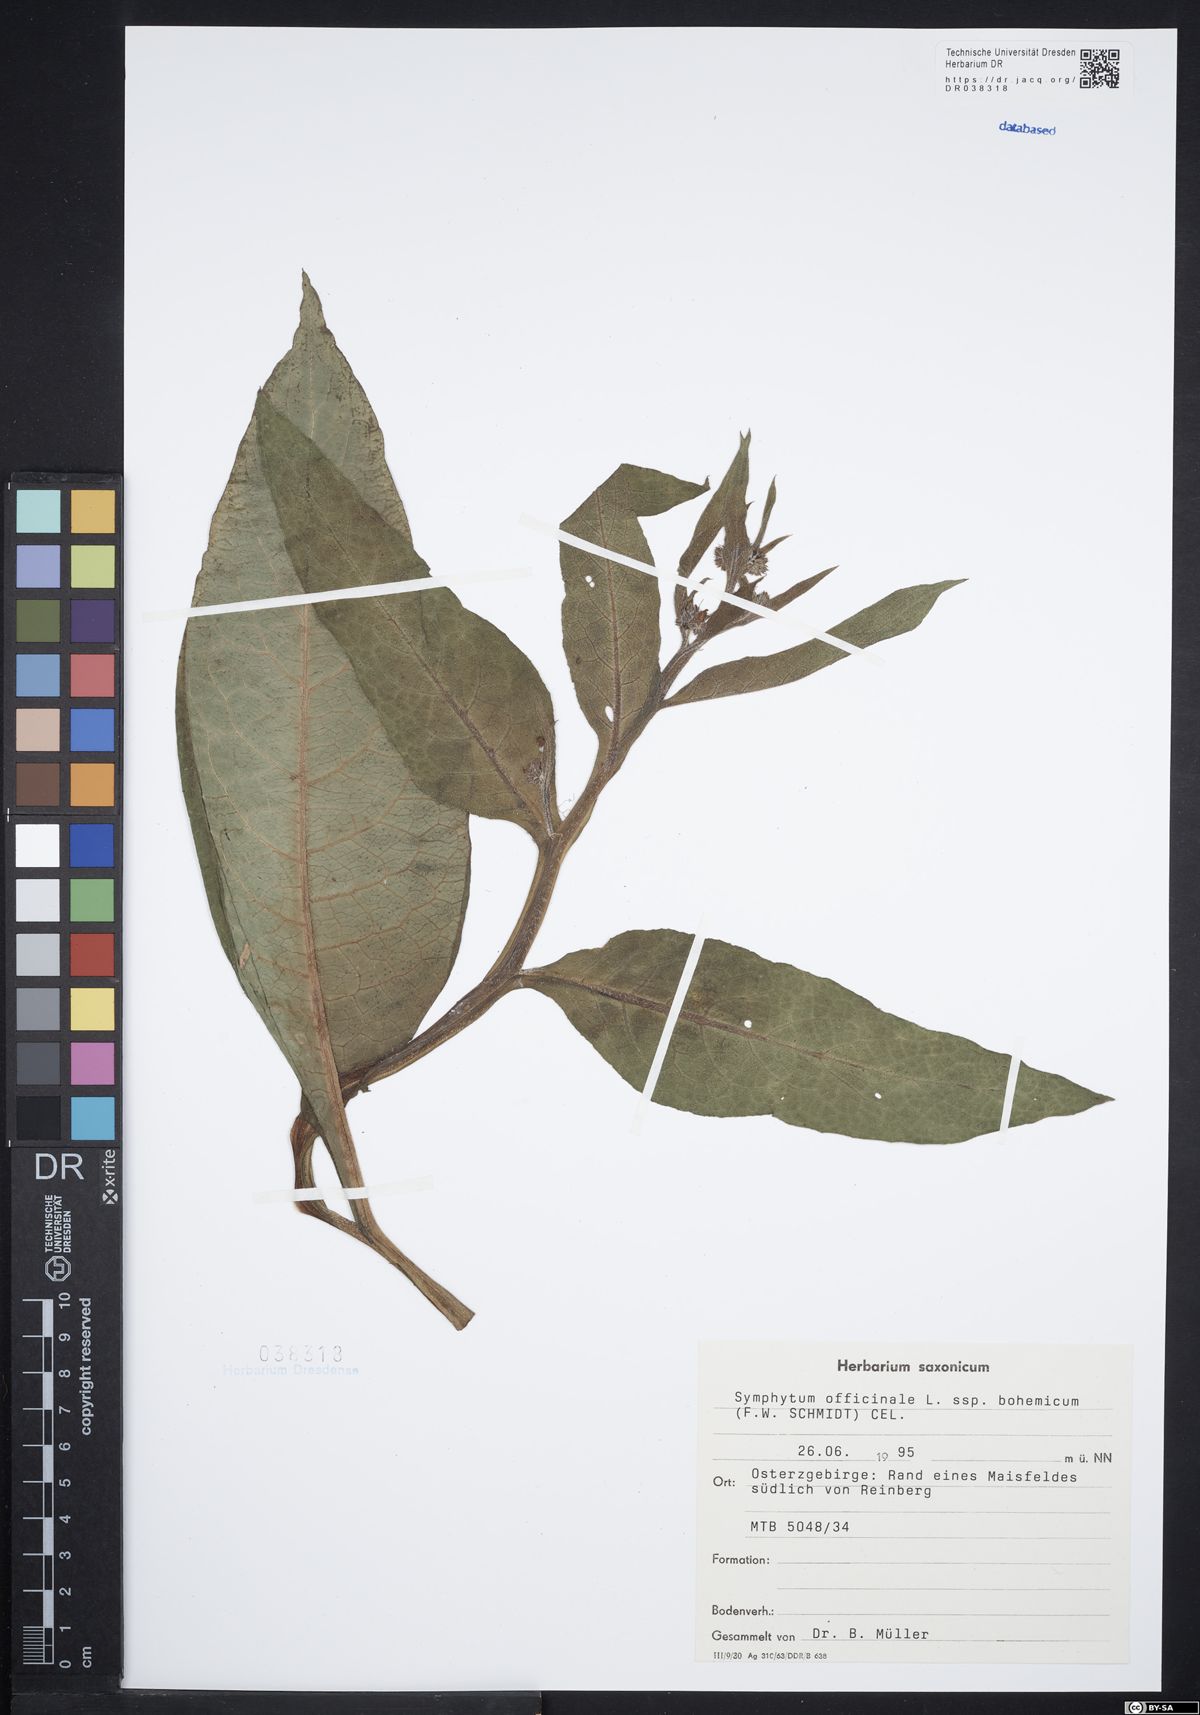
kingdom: Plantae
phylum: Tracheophyta
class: Magnoliopsida
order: Boraginales
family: Boraginaceae
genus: Symphytum
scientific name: Symphytum officinale
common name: Common comfrey
